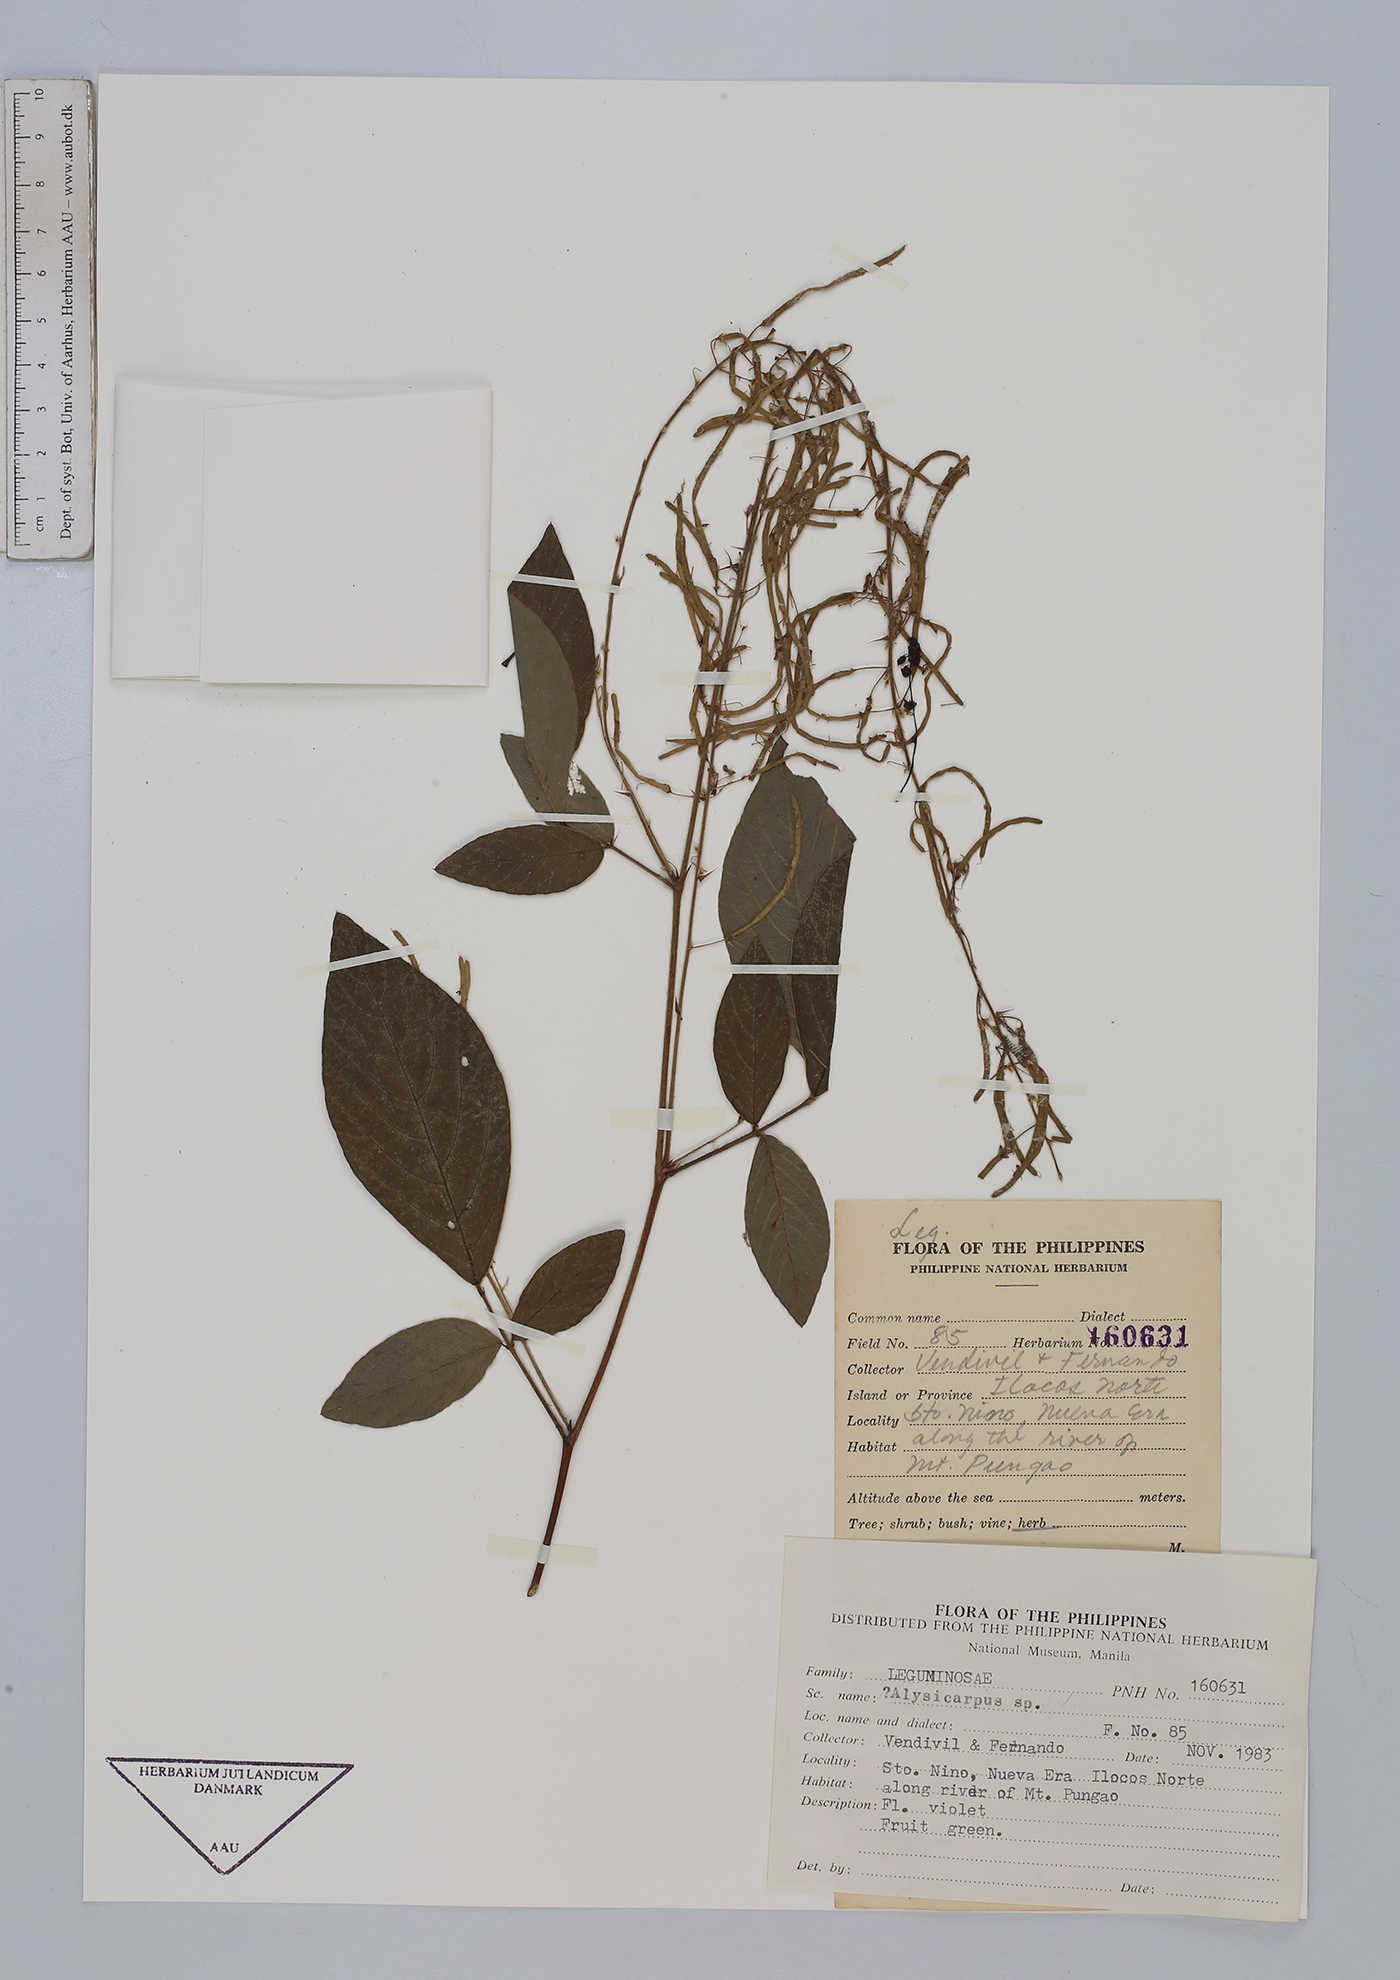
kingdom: Plantae
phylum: Tracheophyta
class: Magnoliopsida
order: Fabales
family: Fabaceae
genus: Alysicarpus
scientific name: Alysicarpus
